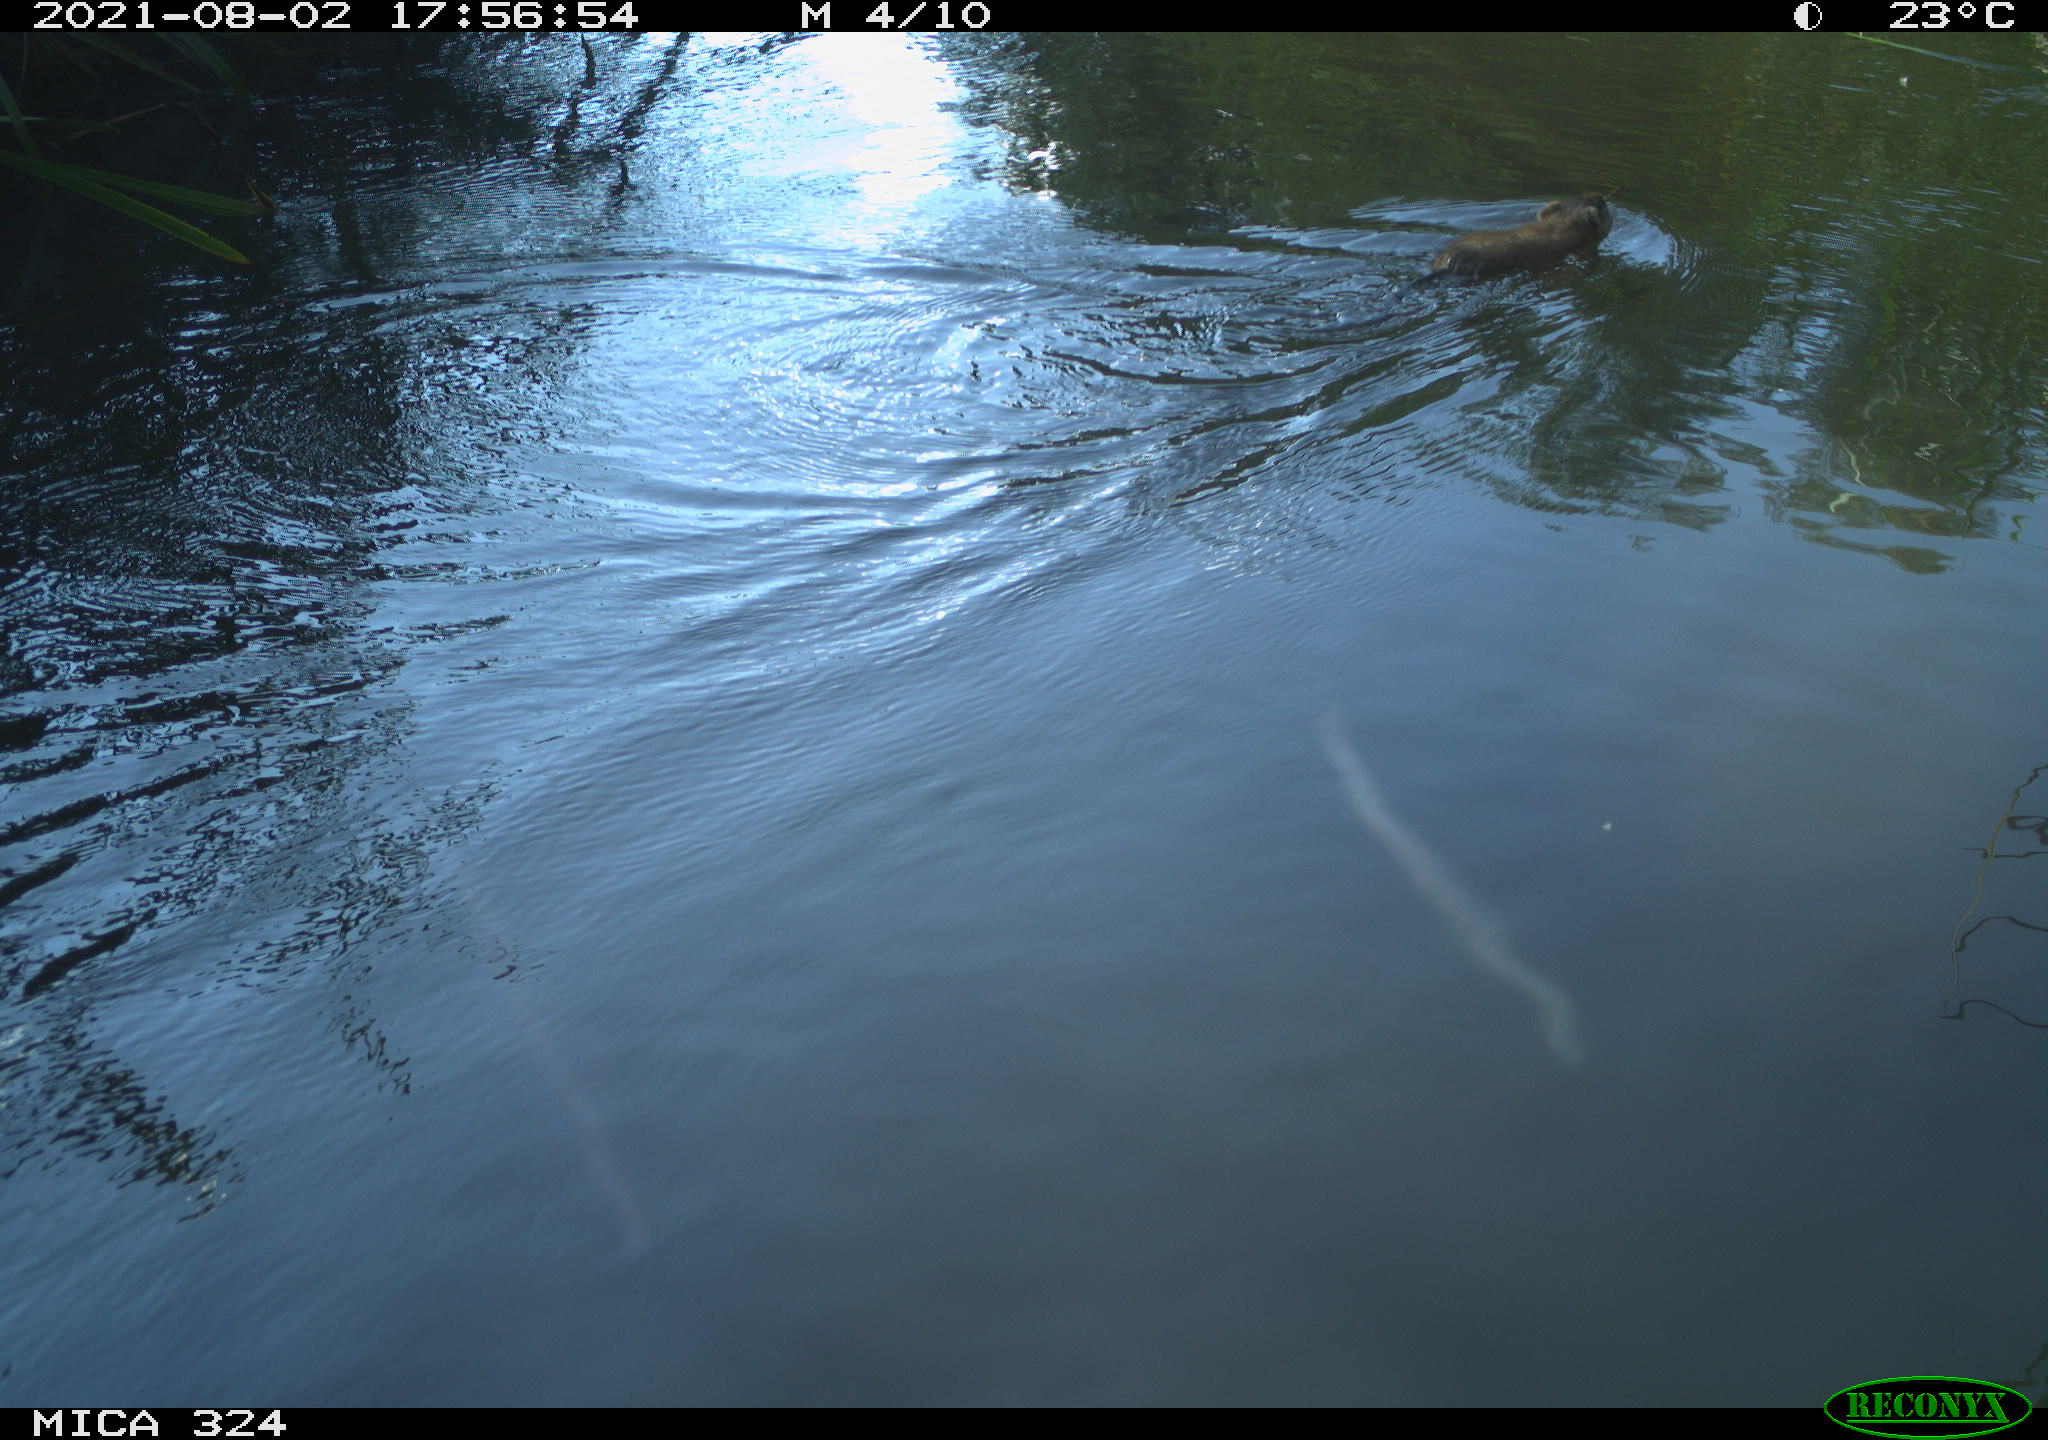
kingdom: Animalia
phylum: Chordata
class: Mammalia
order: Rodentia
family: Cricetidae
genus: Ondatra
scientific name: Ondatra zibethicus
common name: Muskrat
